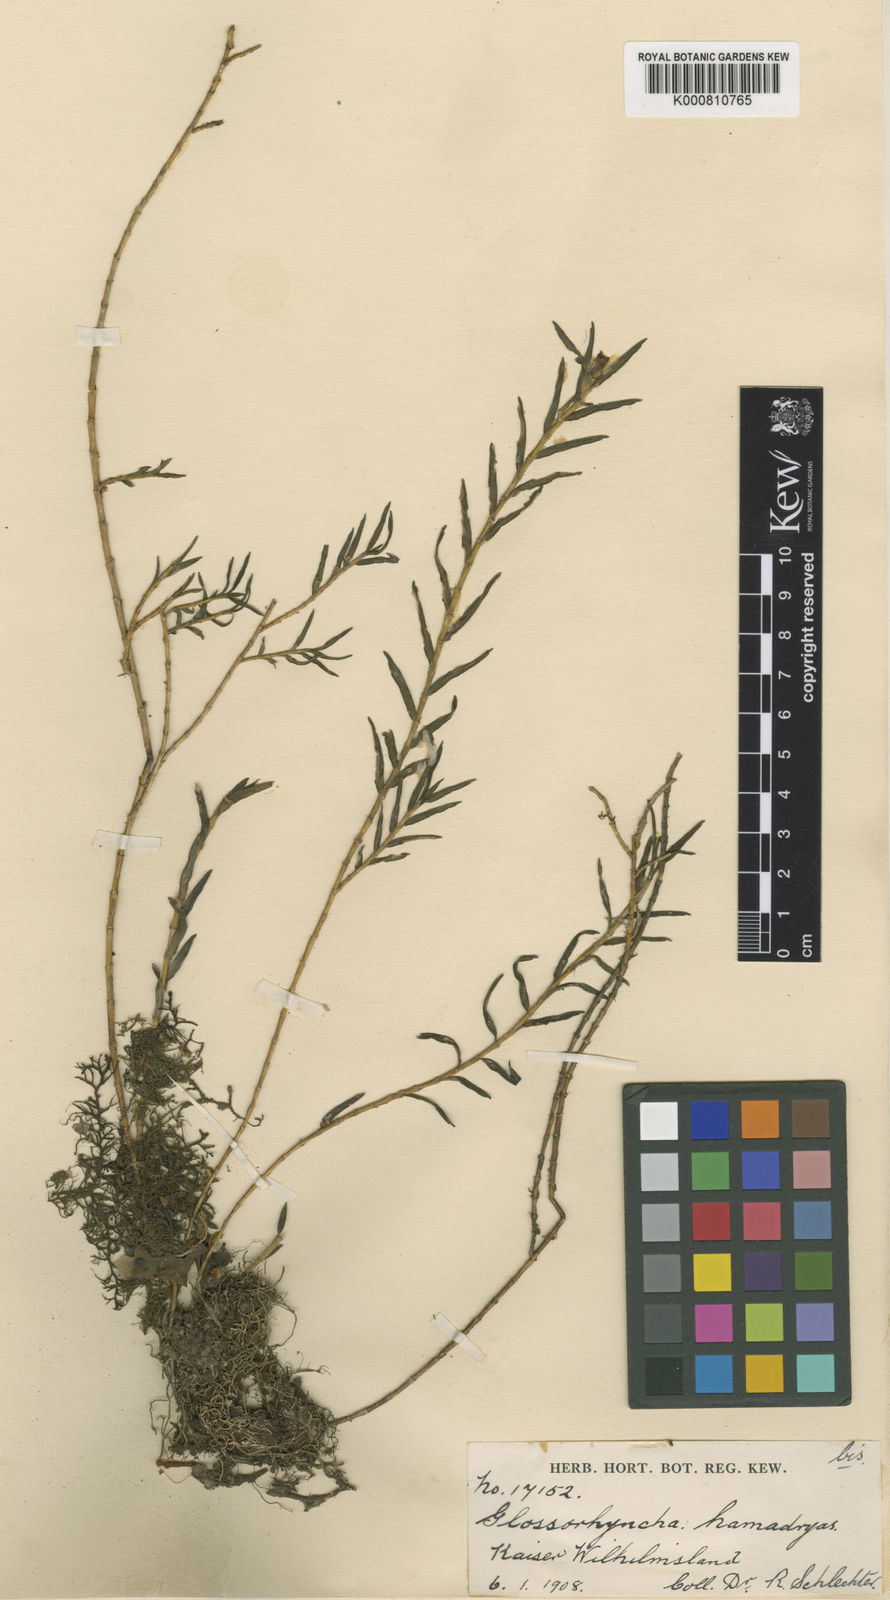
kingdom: Plantae
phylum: Tracheophyta
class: Liliopsida
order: Asparagales
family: Orchidaceae
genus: Glomera
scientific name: Glomera
